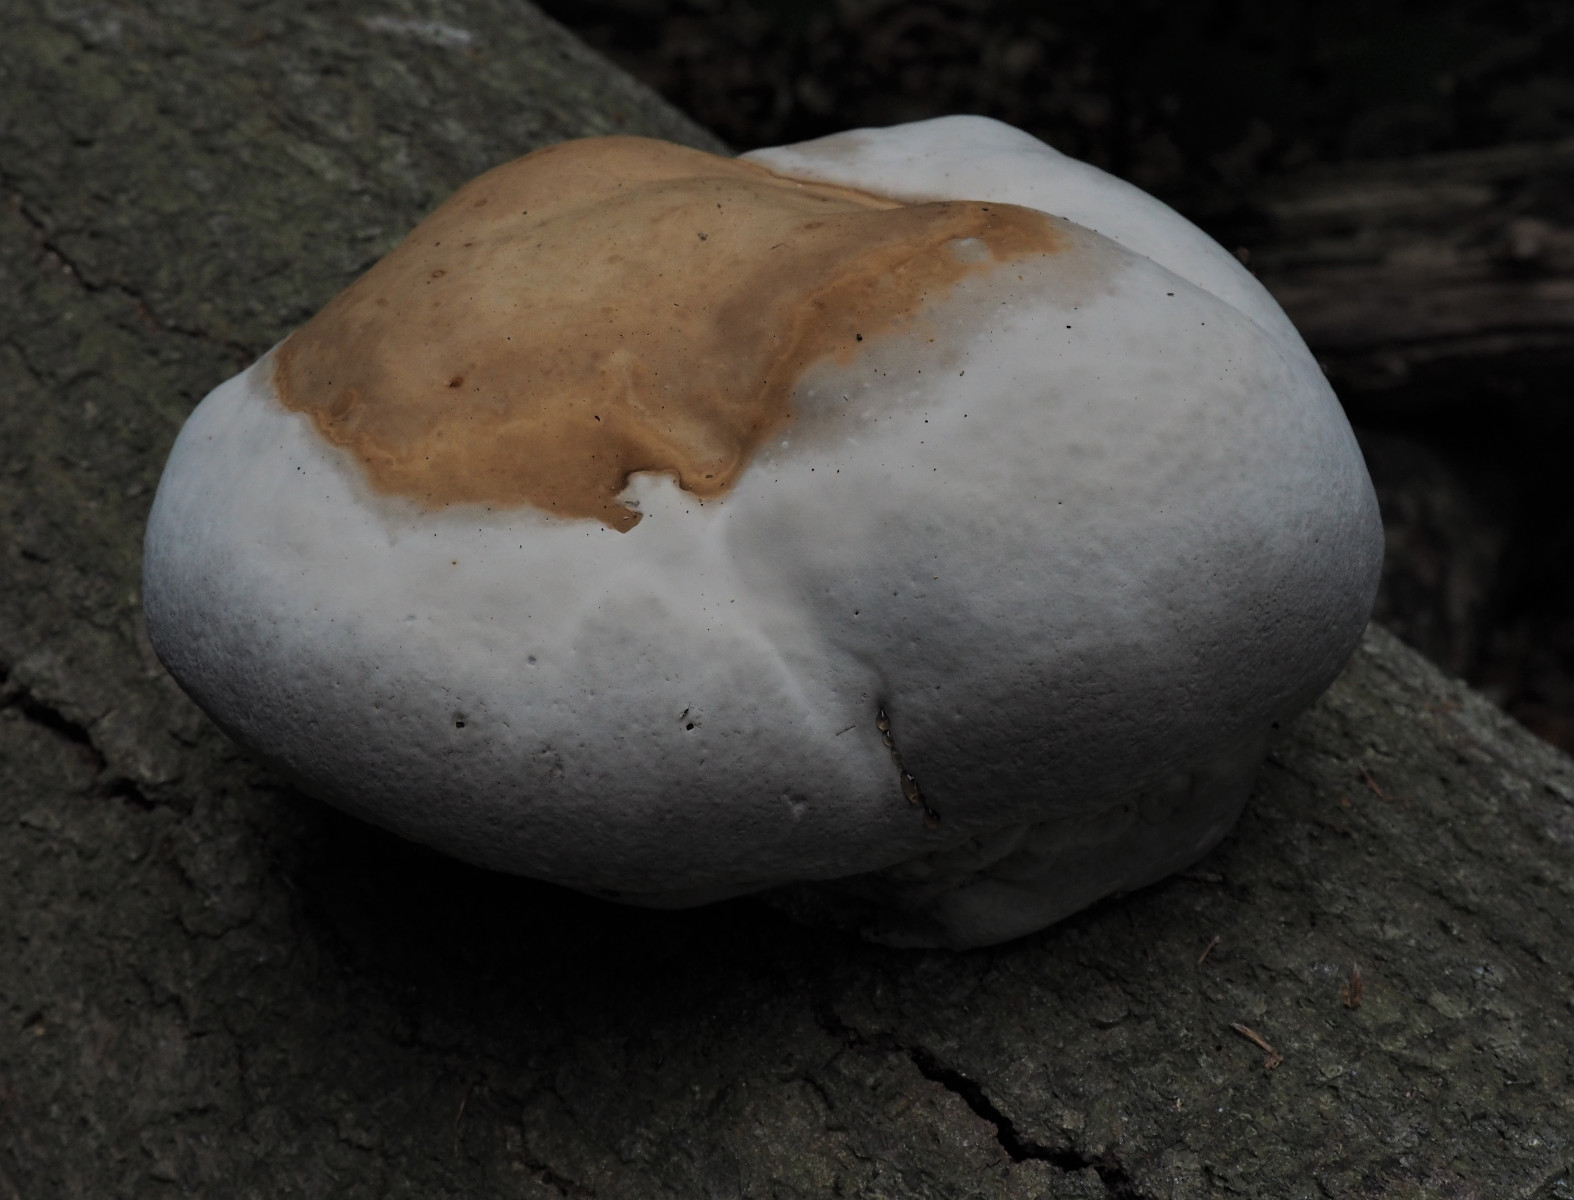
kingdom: Fungi
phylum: Basidiomycota
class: Agaricomycetes
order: Polyporales
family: Polyporaceae
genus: Fomes
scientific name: Fomes fomentarius
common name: tøndersvamp
